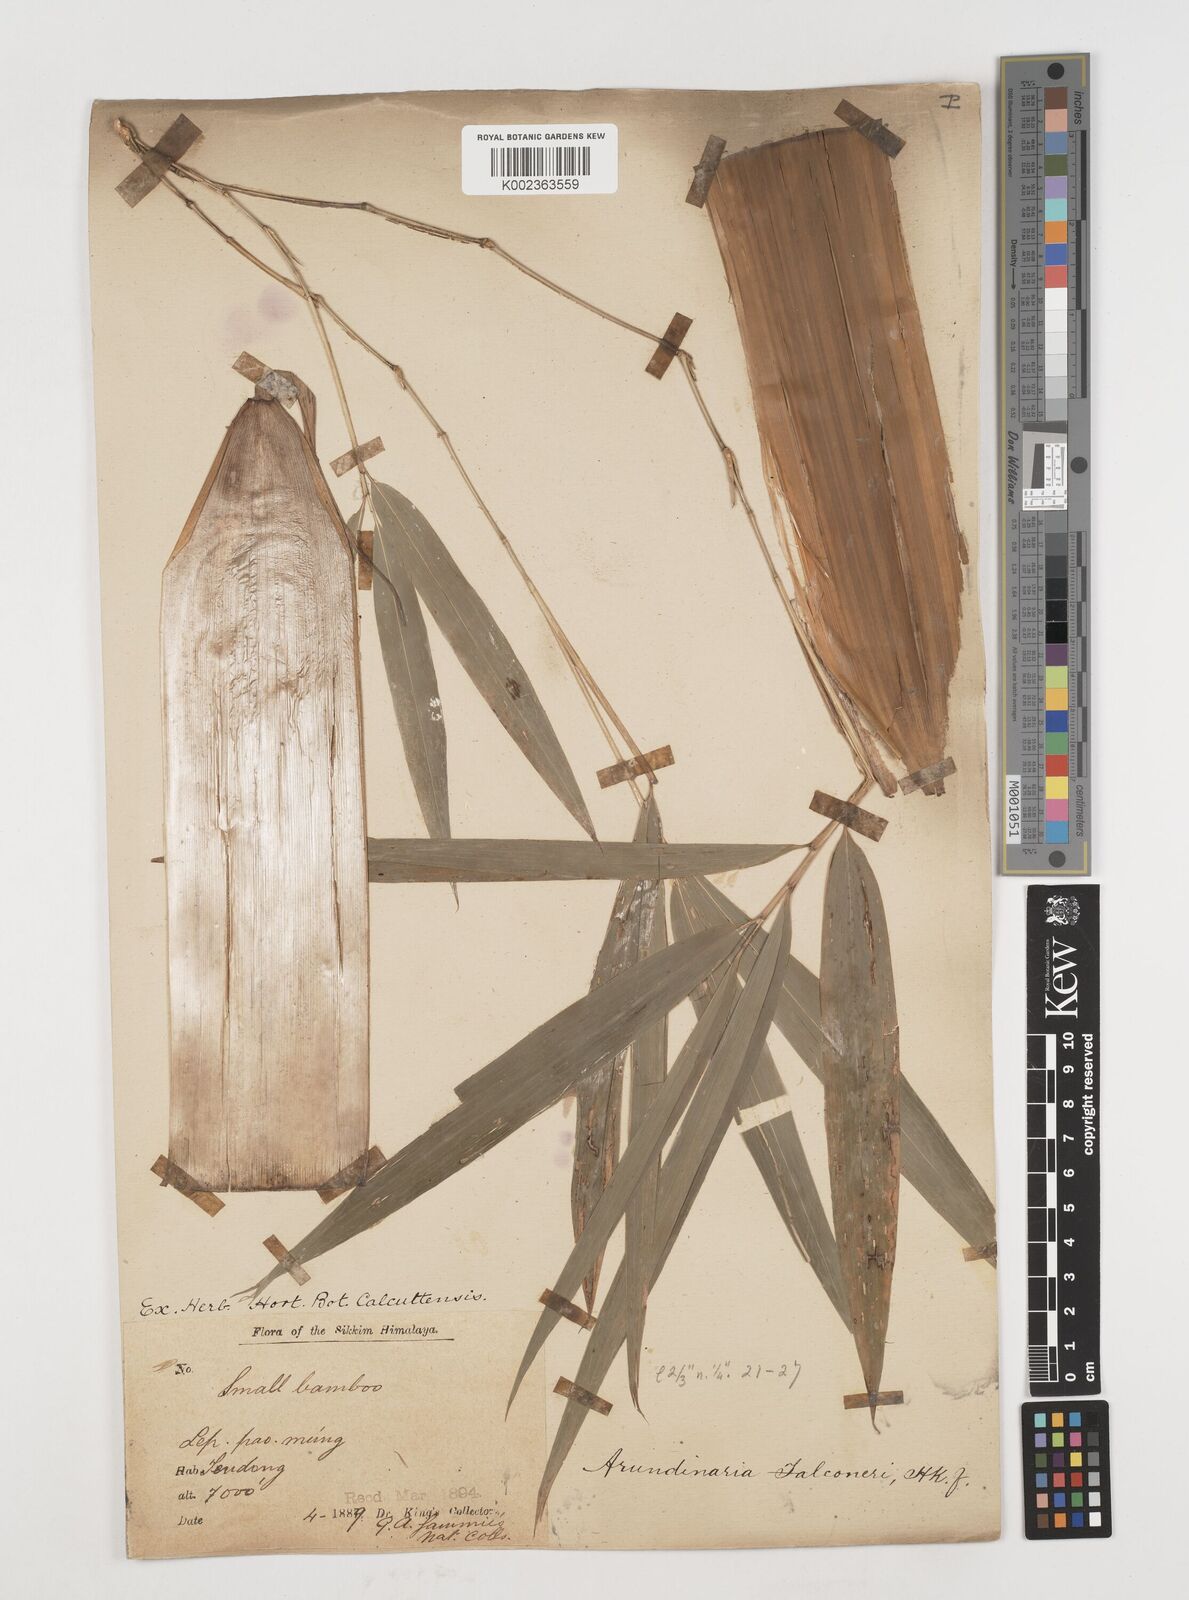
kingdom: Plantae
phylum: Tracheophyta
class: Liliopsida
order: Poales
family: Poaceae
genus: Himalayacalamus
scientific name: Himalayacalamus falconeri
